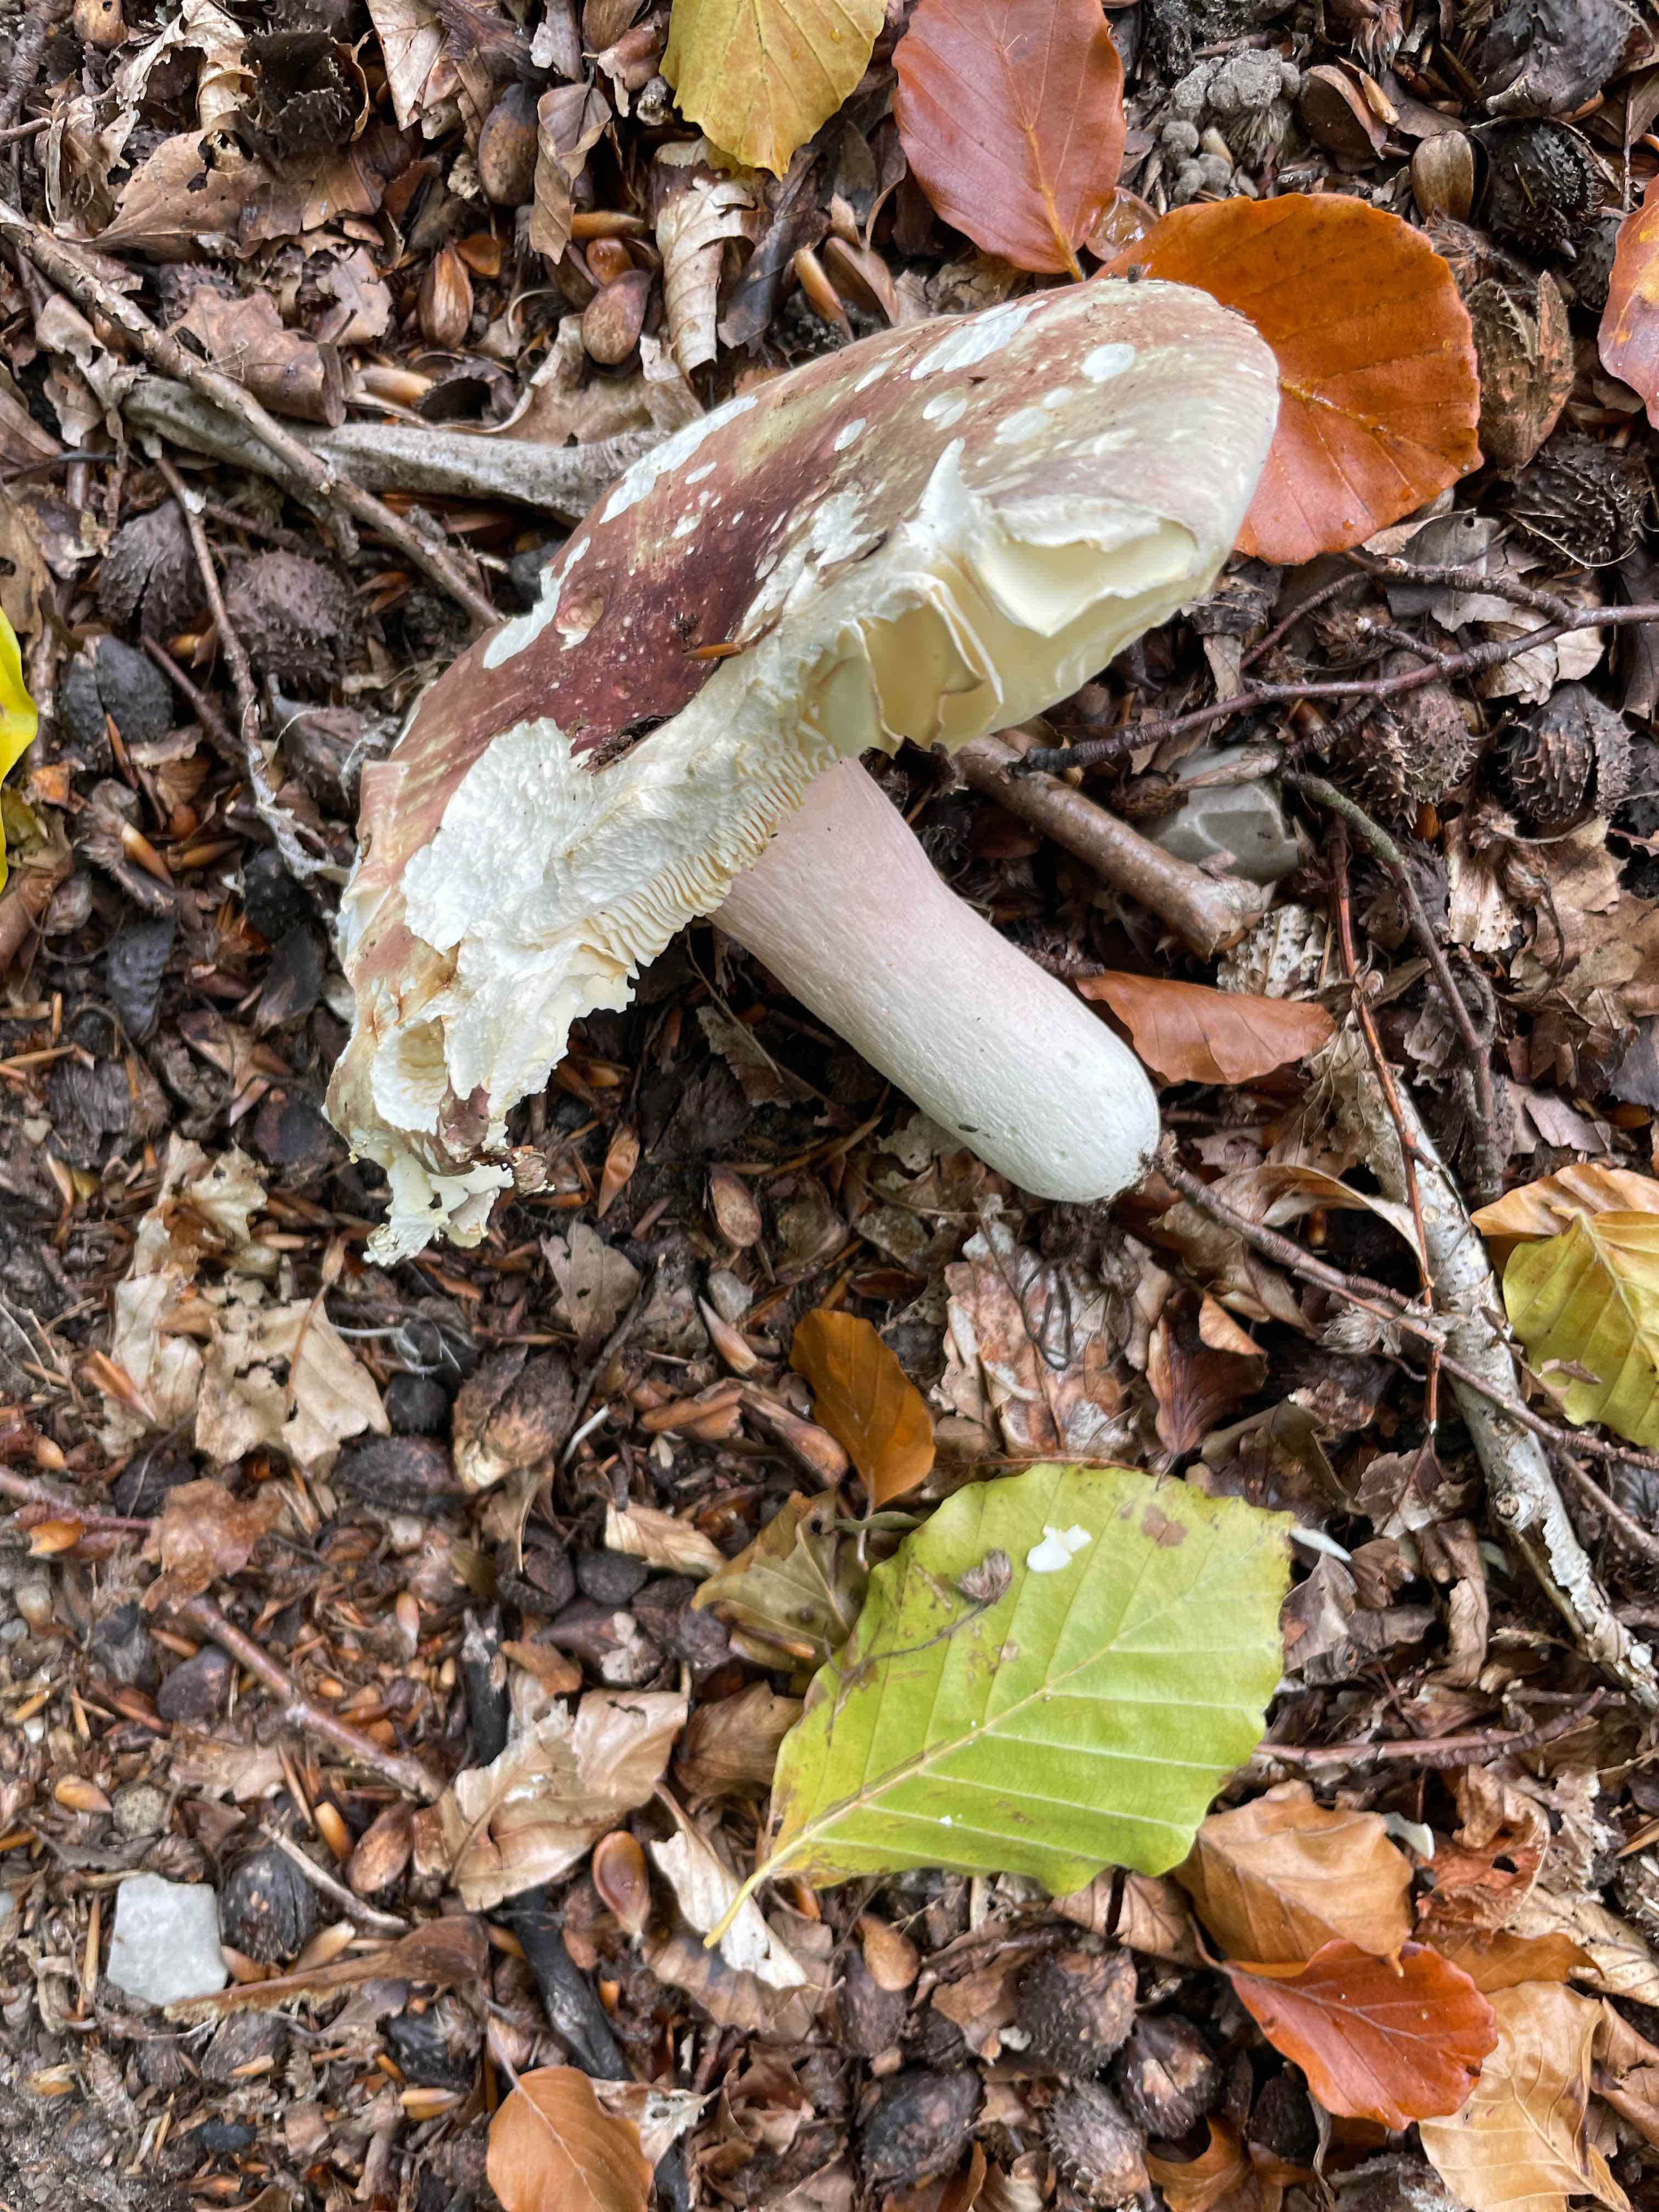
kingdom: Fungi
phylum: Basidiomycota
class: Agaricomycetes
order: Russulales
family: Russulaceae
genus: Russula
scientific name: Russula
